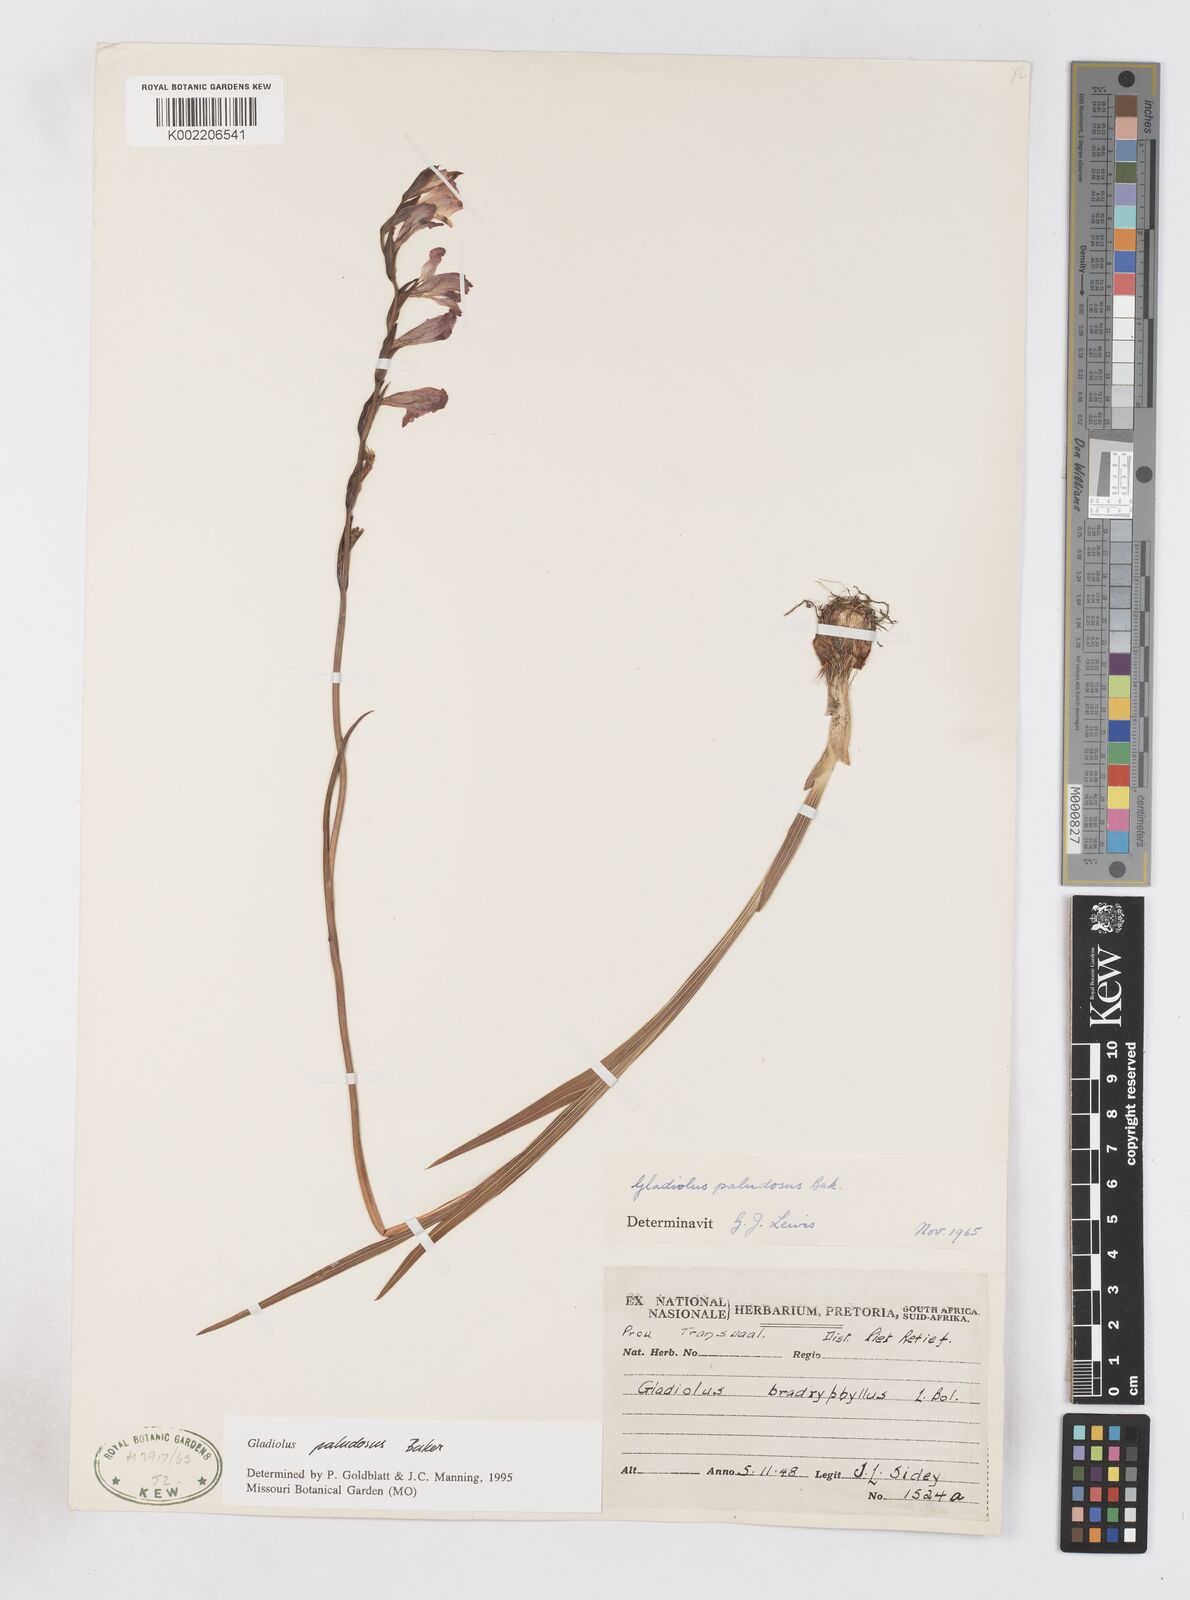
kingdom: Plantae
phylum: Tracheophyta
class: Liliopsida
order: Asparagales
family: Iridaceae
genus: Gladiolus
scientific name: Gladiolus paludosus
